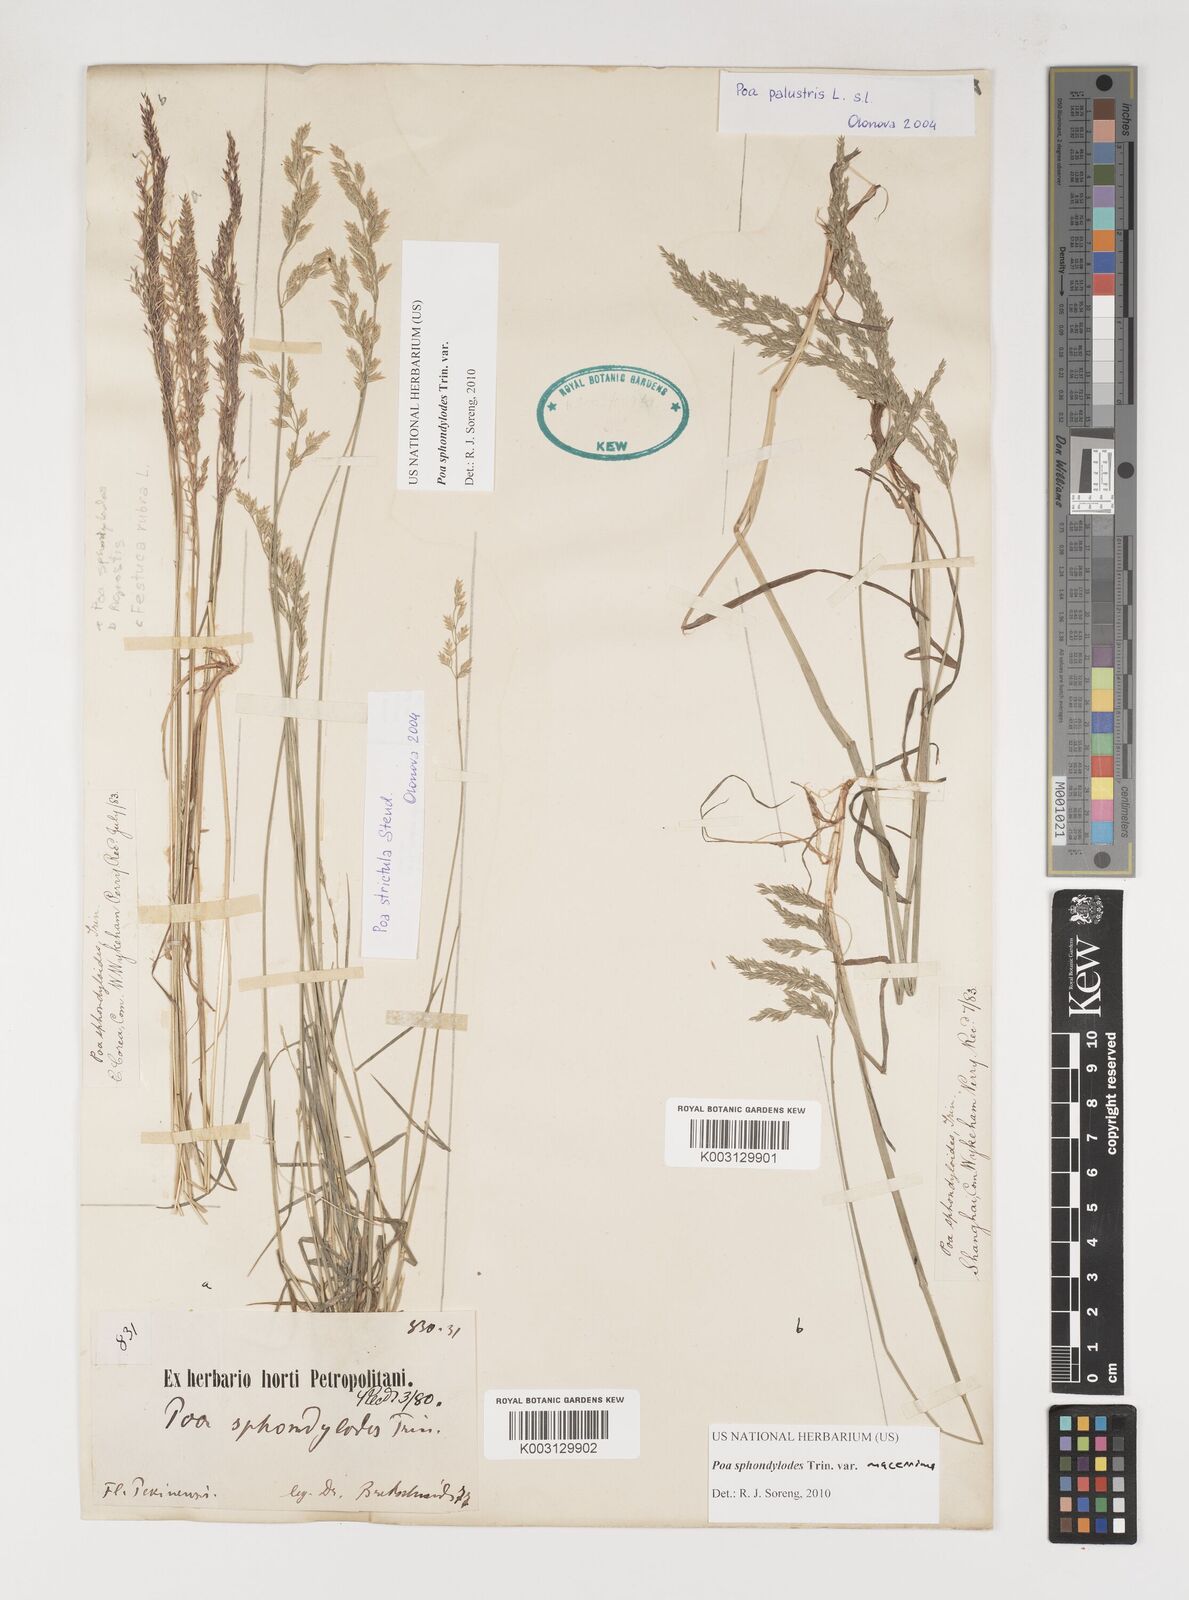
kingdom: Plantae
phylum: Tracheophyta
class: Liliopsida
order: Poales
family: Poaceae
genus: Poa
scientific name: Poa sphondylodes
